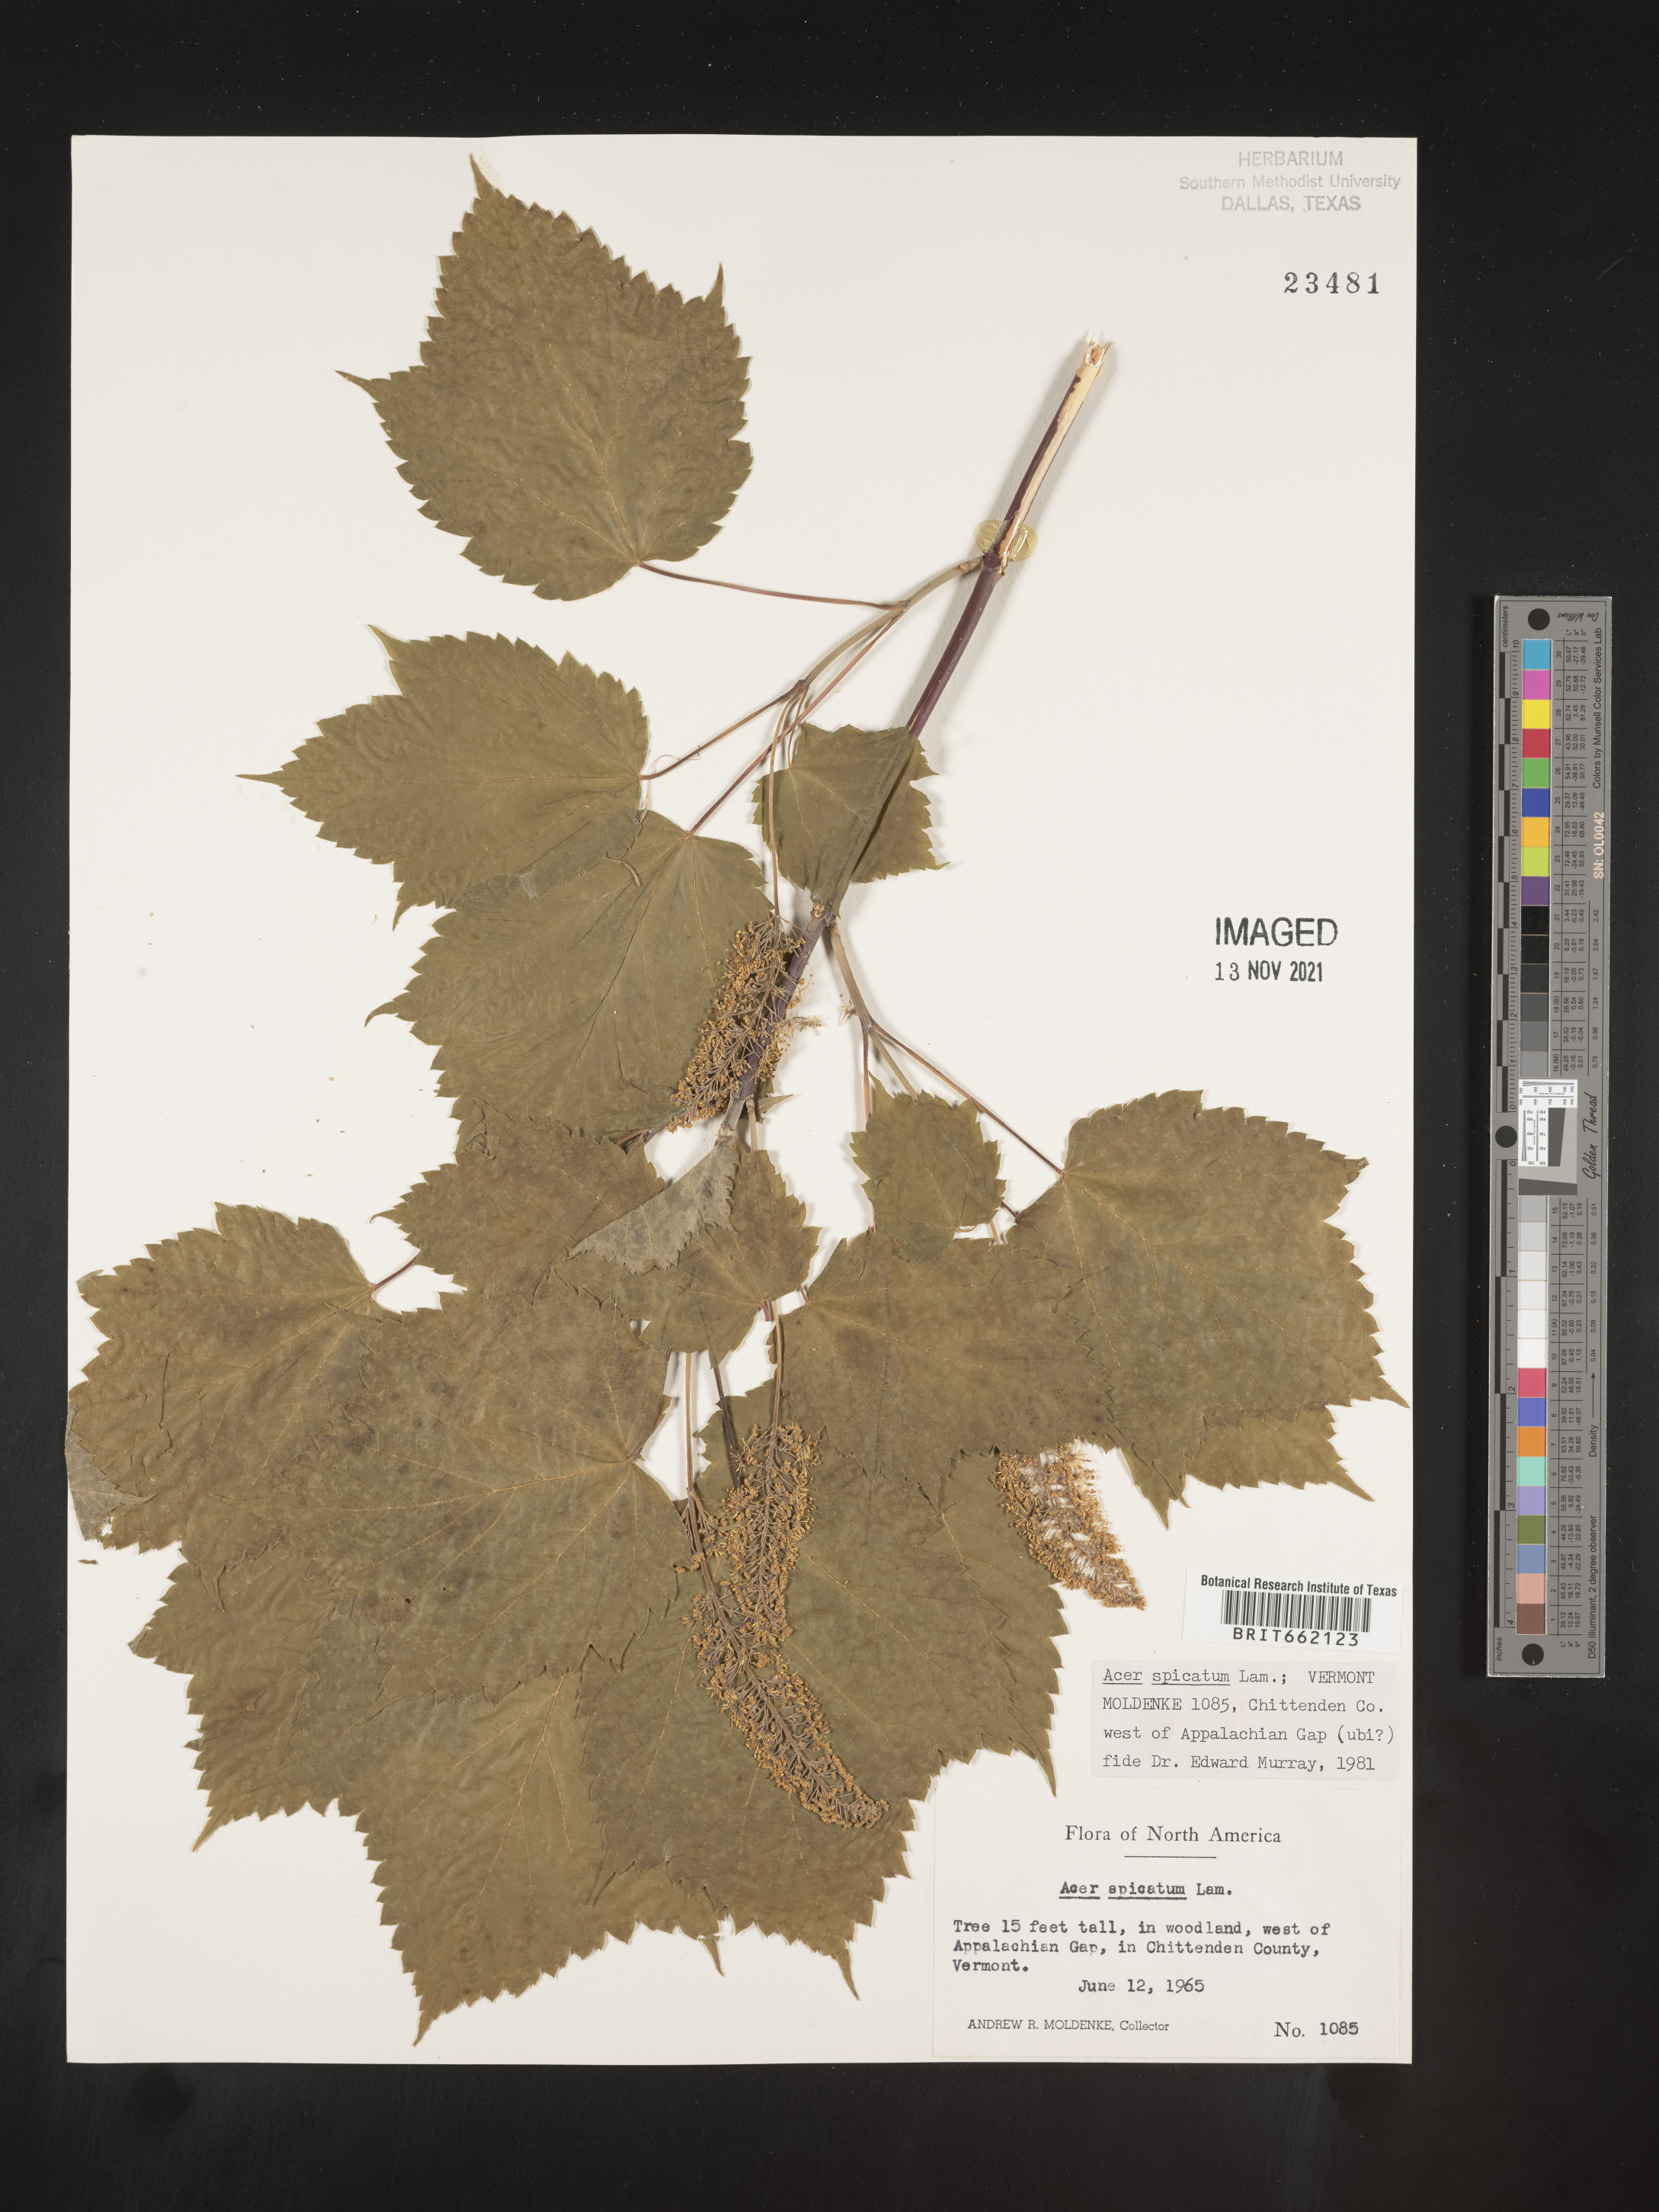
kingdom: Plantae
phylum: Tracheophyta
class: Magnoliopsida
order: Sapindales
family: Sapindaceae
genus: Acer
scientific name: Acer spicatum
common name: Mountain maple
